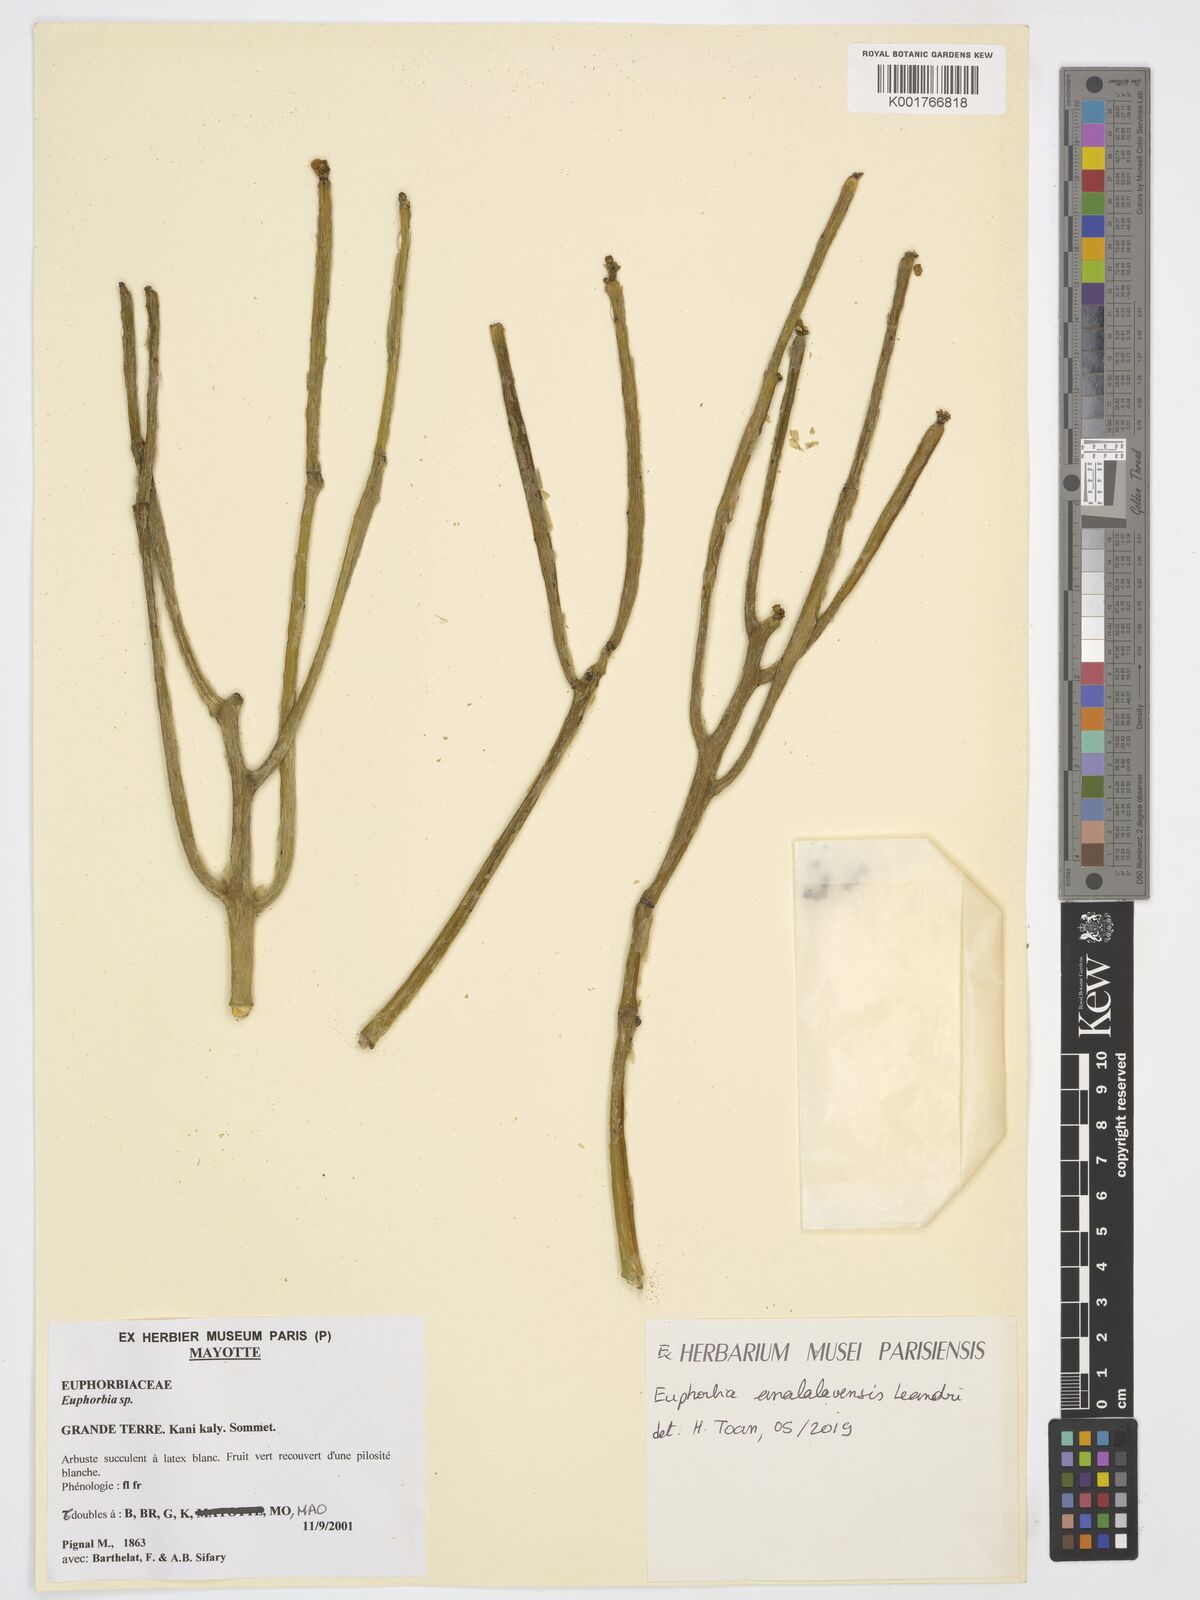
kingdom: Plantae
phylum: Tracheophyta
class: Magnoliopsida
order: Malpighiales
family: Euphorbiaceae
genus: Euphorbia
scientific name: Euphorbia analalavensis
